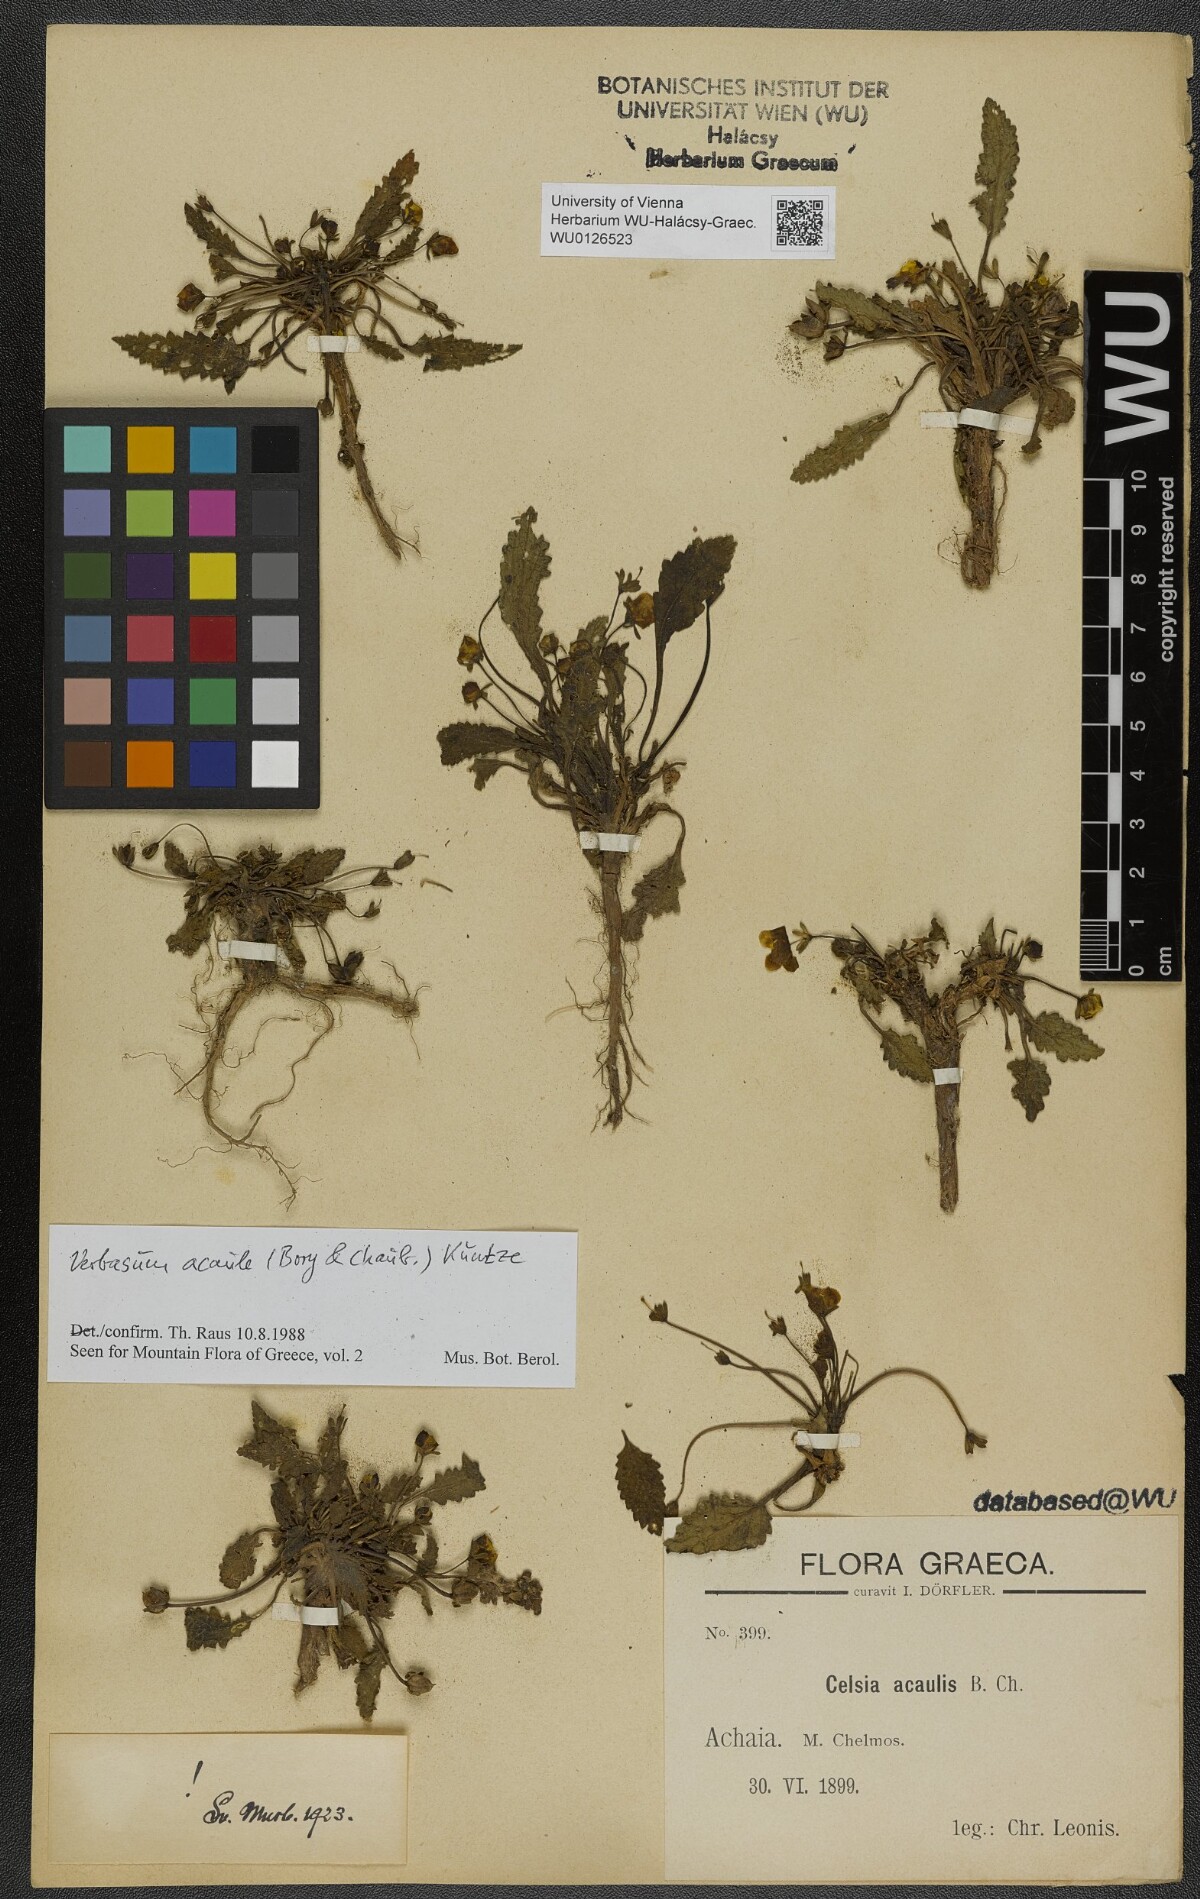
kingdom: Plantae
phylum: Tracheophyta
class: Magnoliopsida
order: Lamiales
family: Scrophulariaceae
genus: Verbascum
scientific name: Verbascum acaule
